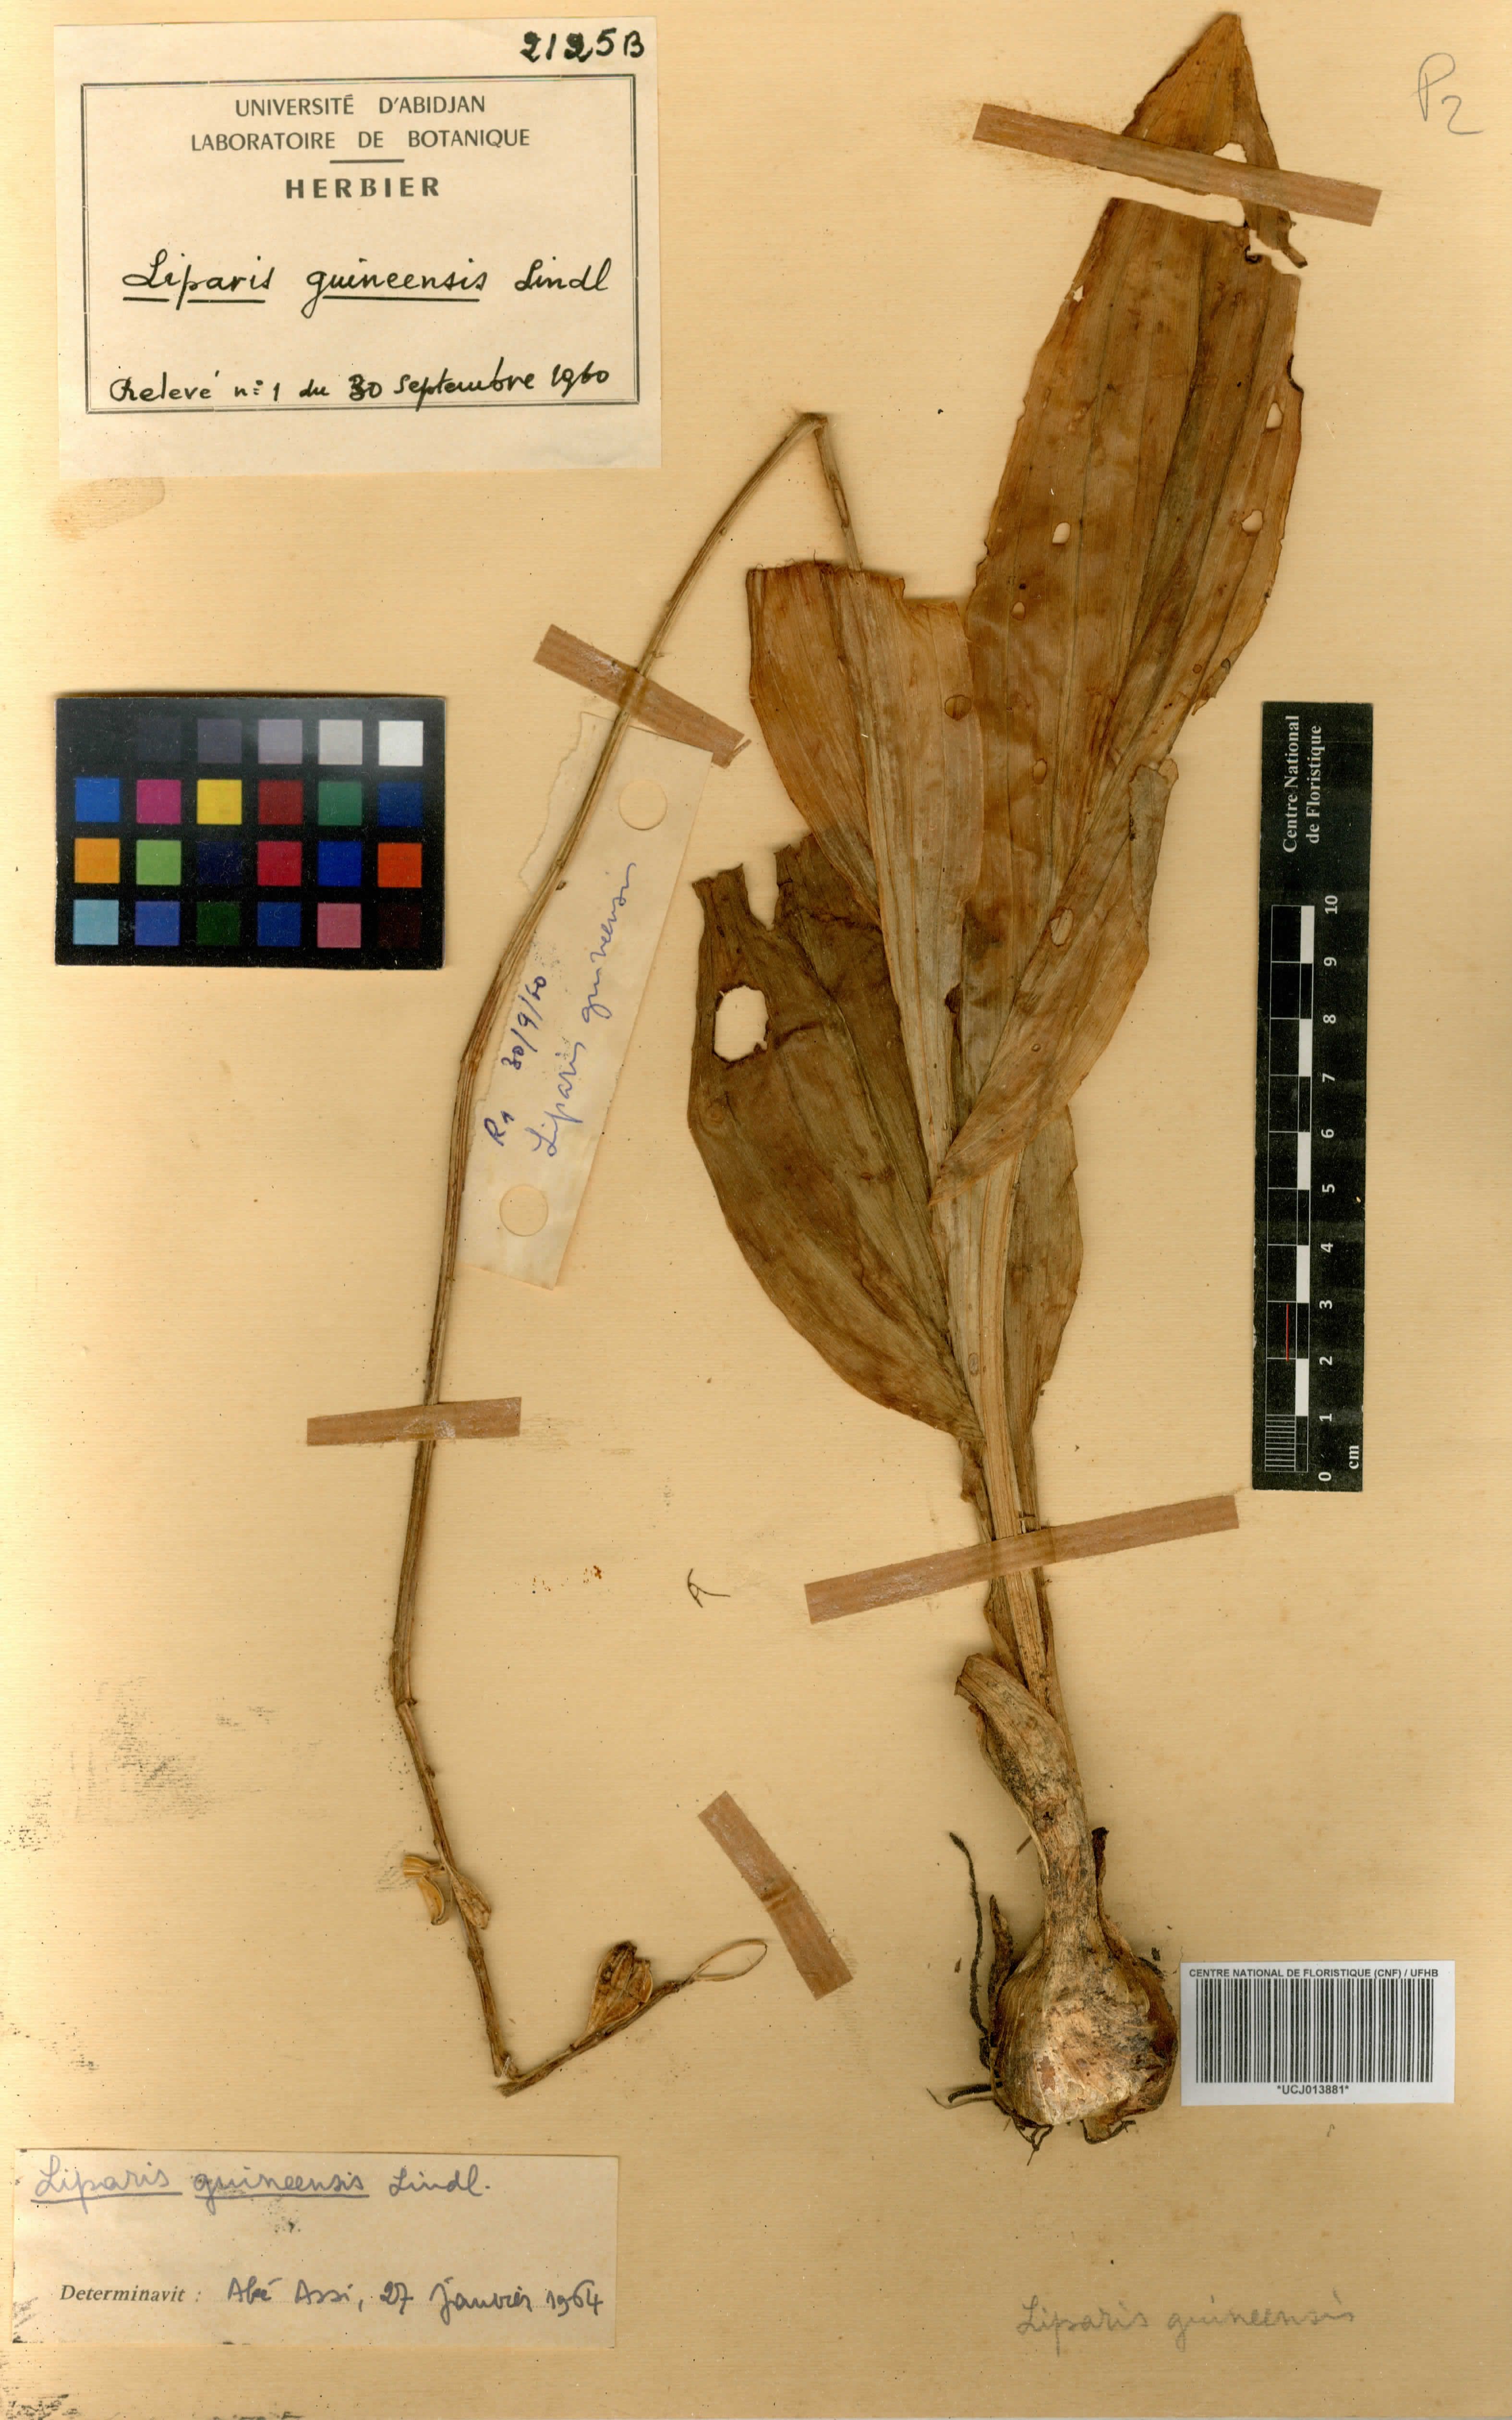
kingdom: Plantae
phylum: Tracheophyta
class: Liliopsida
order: Asparagales
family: Orchidaceae
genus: Liparis
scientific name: Liparis nervosa
